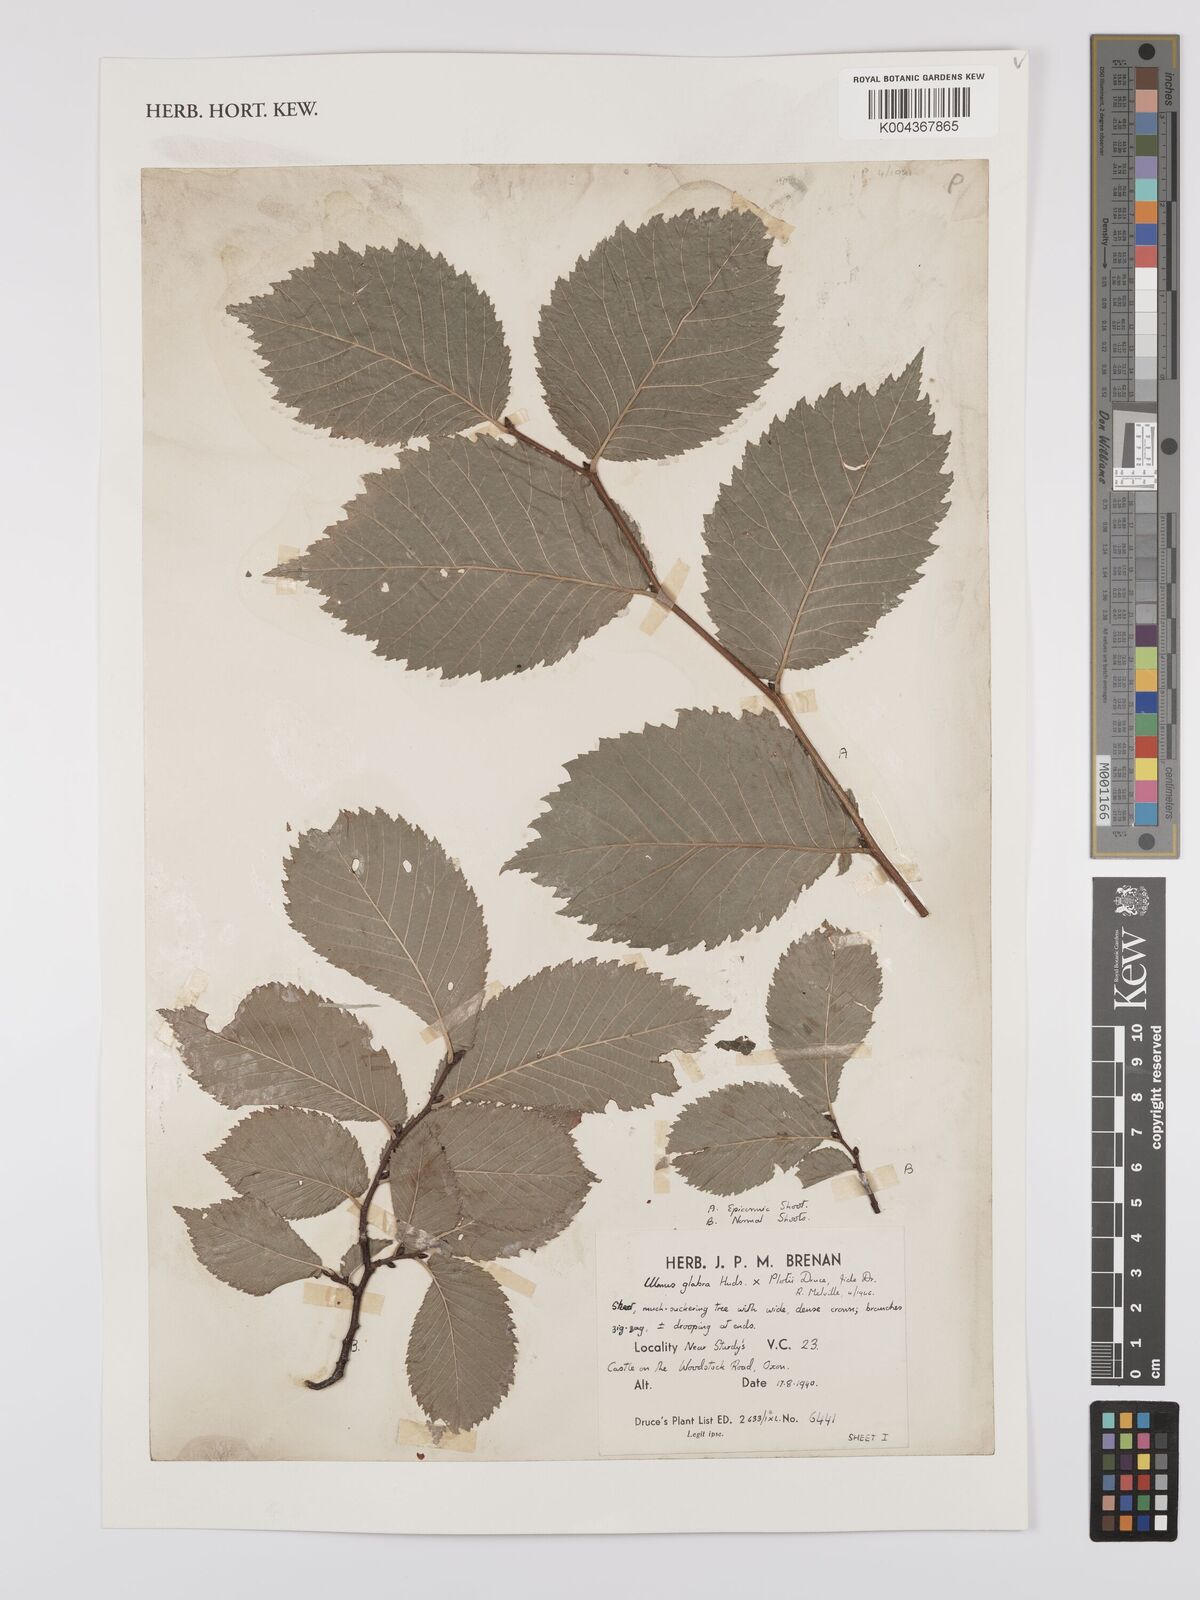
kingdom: Plantae
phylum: Tracheophyta
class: Magnoliopsida
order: Rosales
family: Ulmaceae
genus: Ulmus
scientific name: Ulmus
